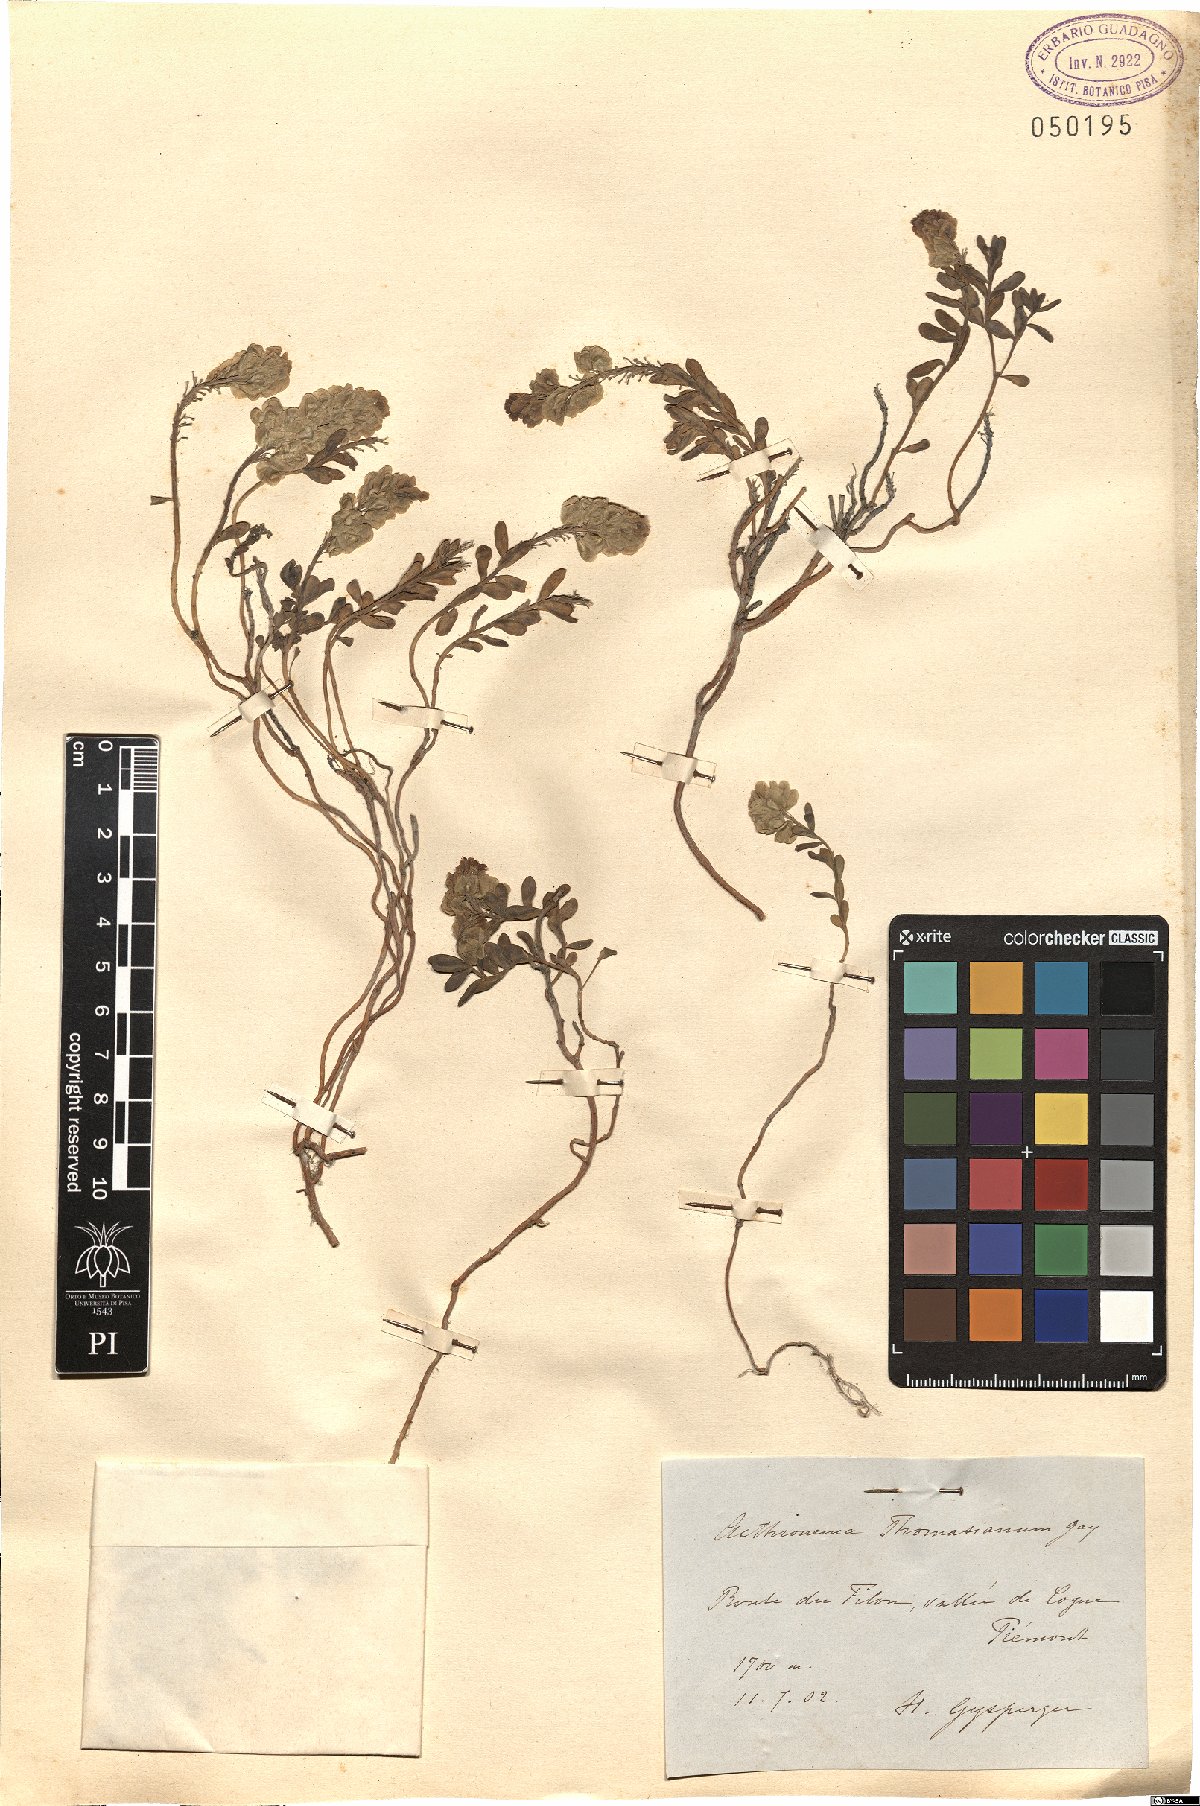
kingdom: Plantae
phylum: Tracheophyta
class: Magnoliopsida
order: Brassicales
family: Brassicaceae
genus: Aethionema
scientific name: Aethionema thomasianum
